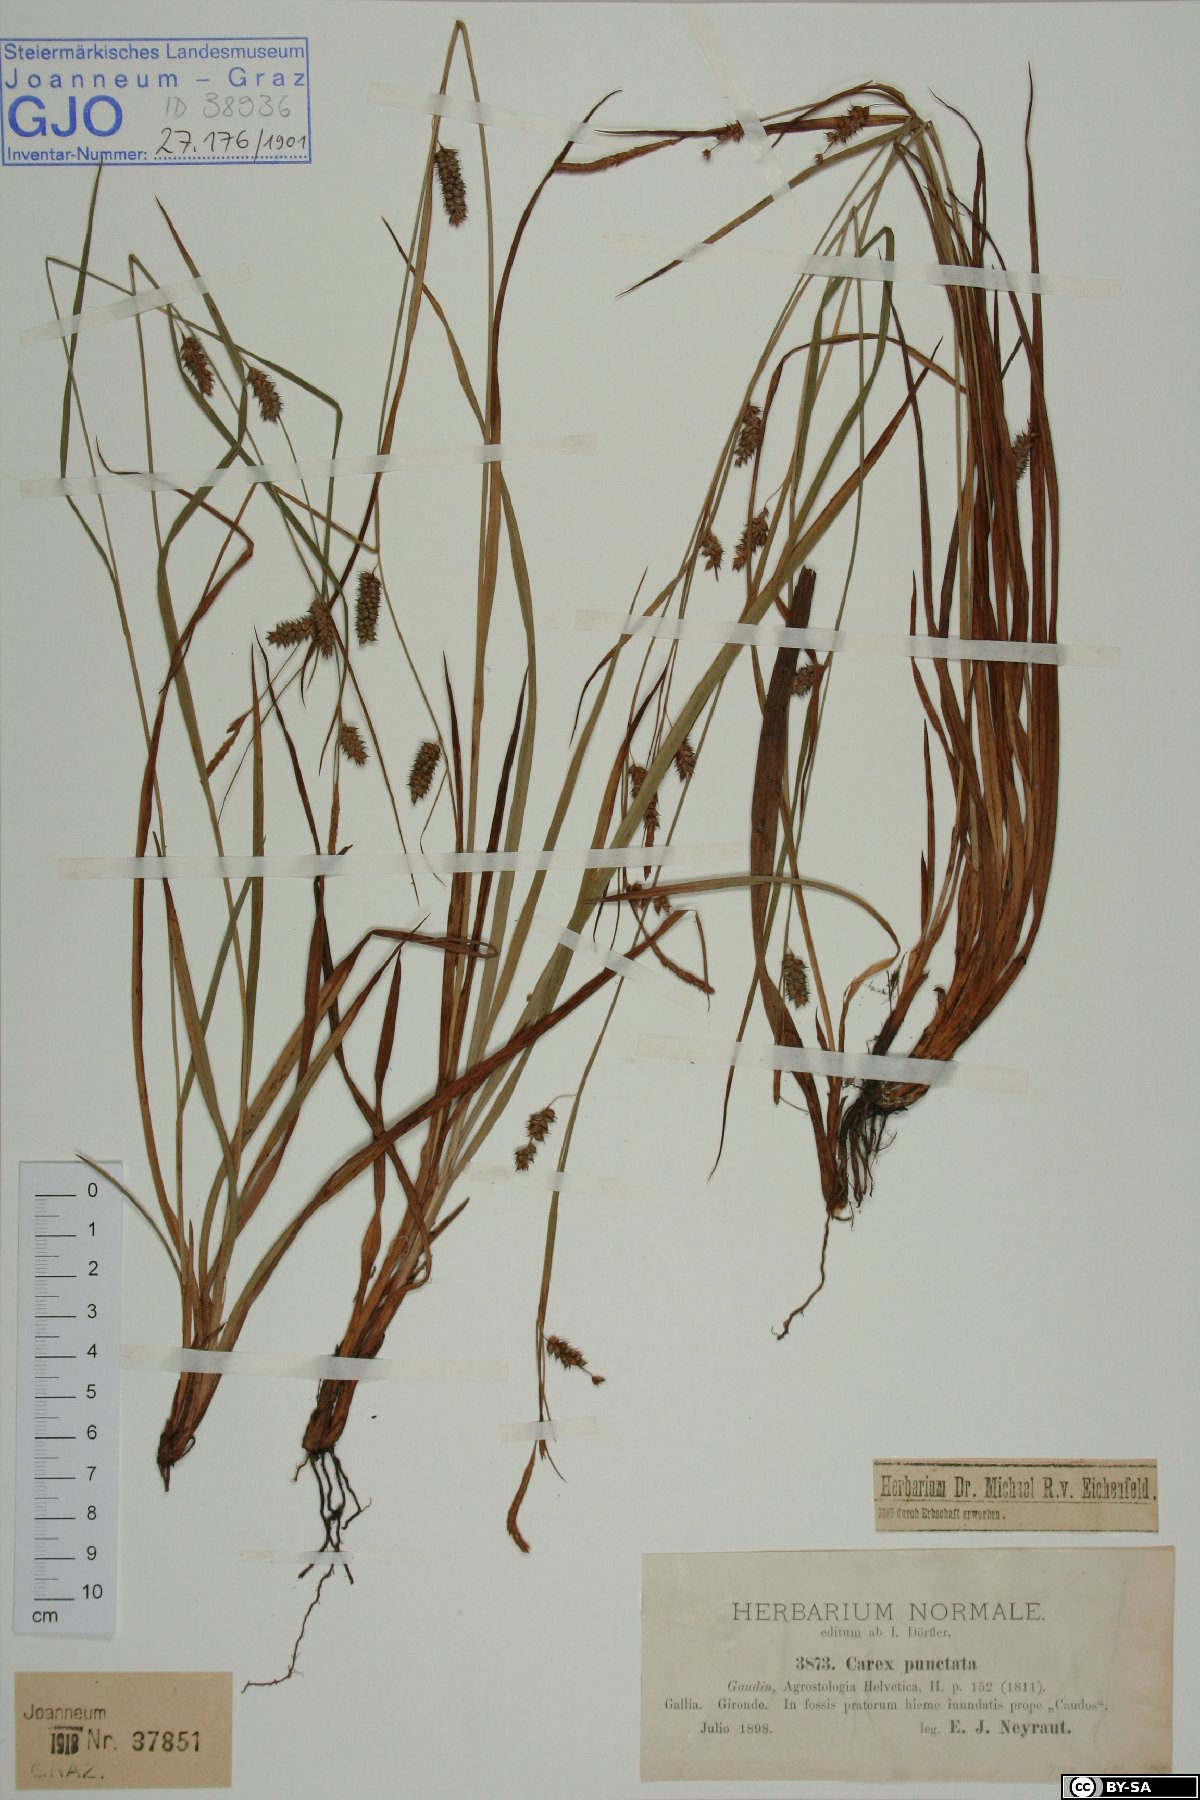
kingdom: Plantae
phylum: Tracheophyta
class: Liliopsida
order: Poales
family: Cyperaceae
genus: Carex
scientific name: Carex punctata
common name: Dotted sedge
